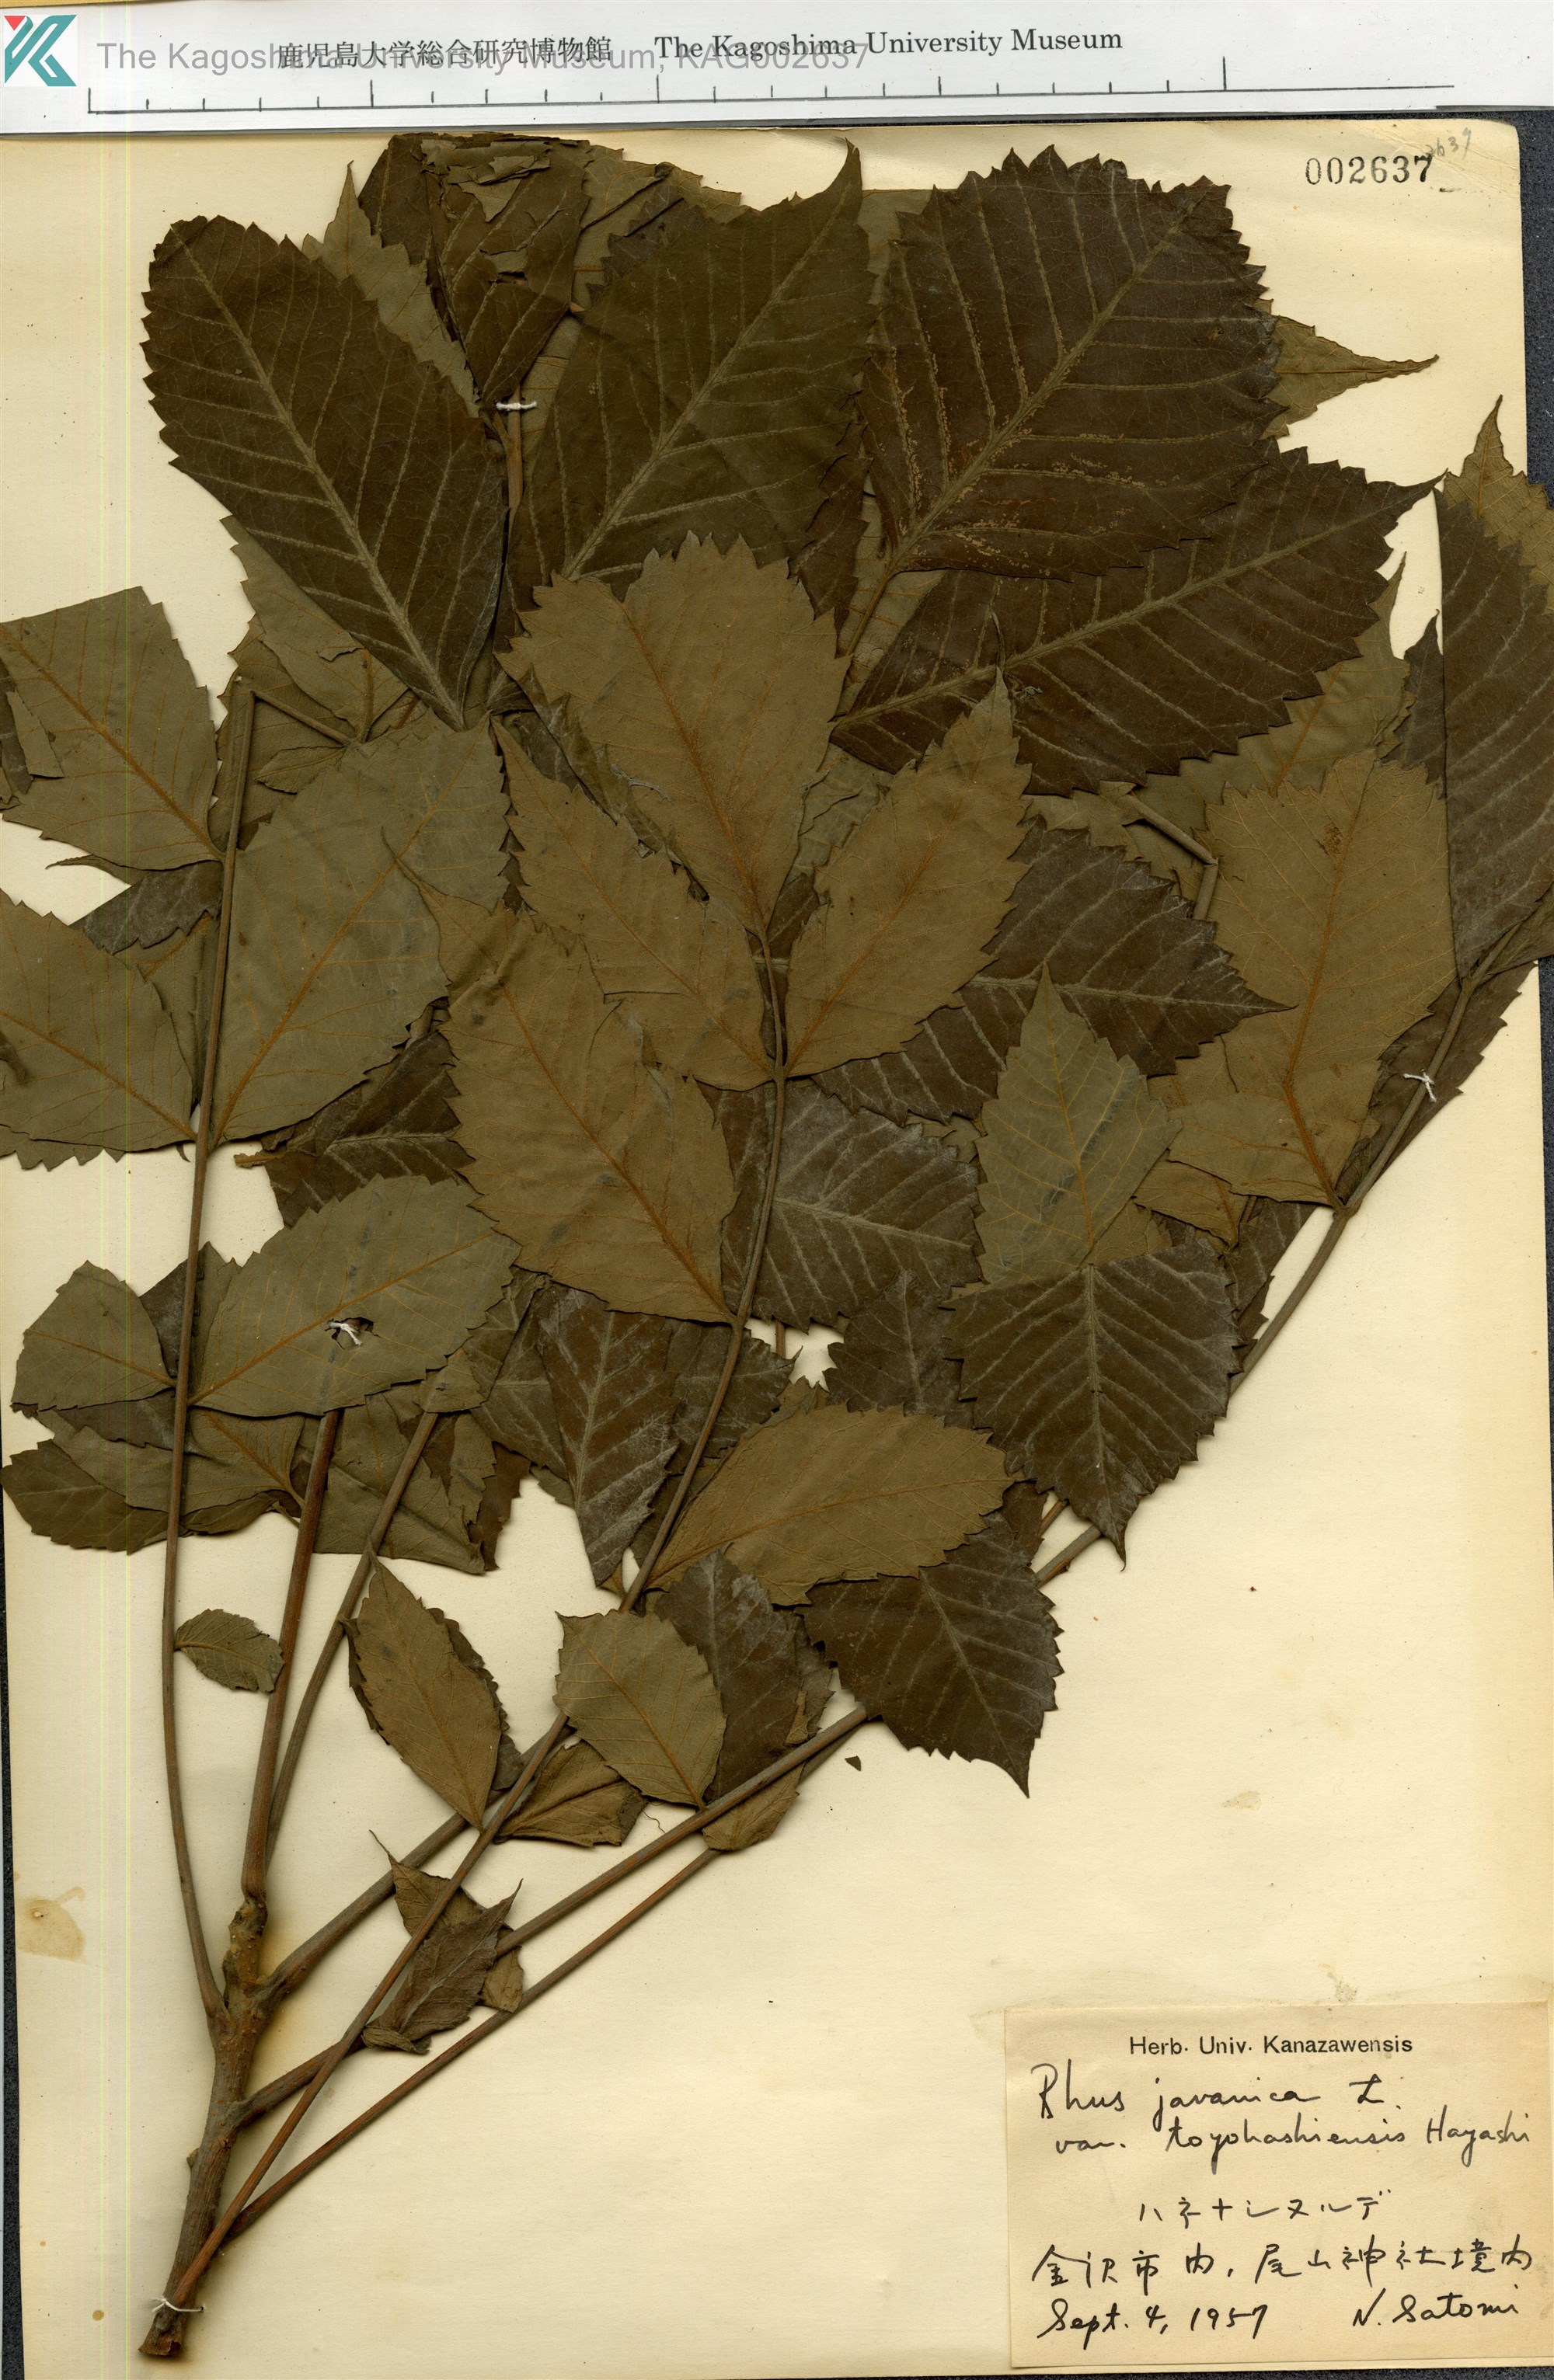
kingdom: Plantae
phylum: Tracheophyta
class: Magnoliopsida
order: Sapindales
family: Anacardiaceae
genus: Rhus
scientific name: Rhus chinensis
